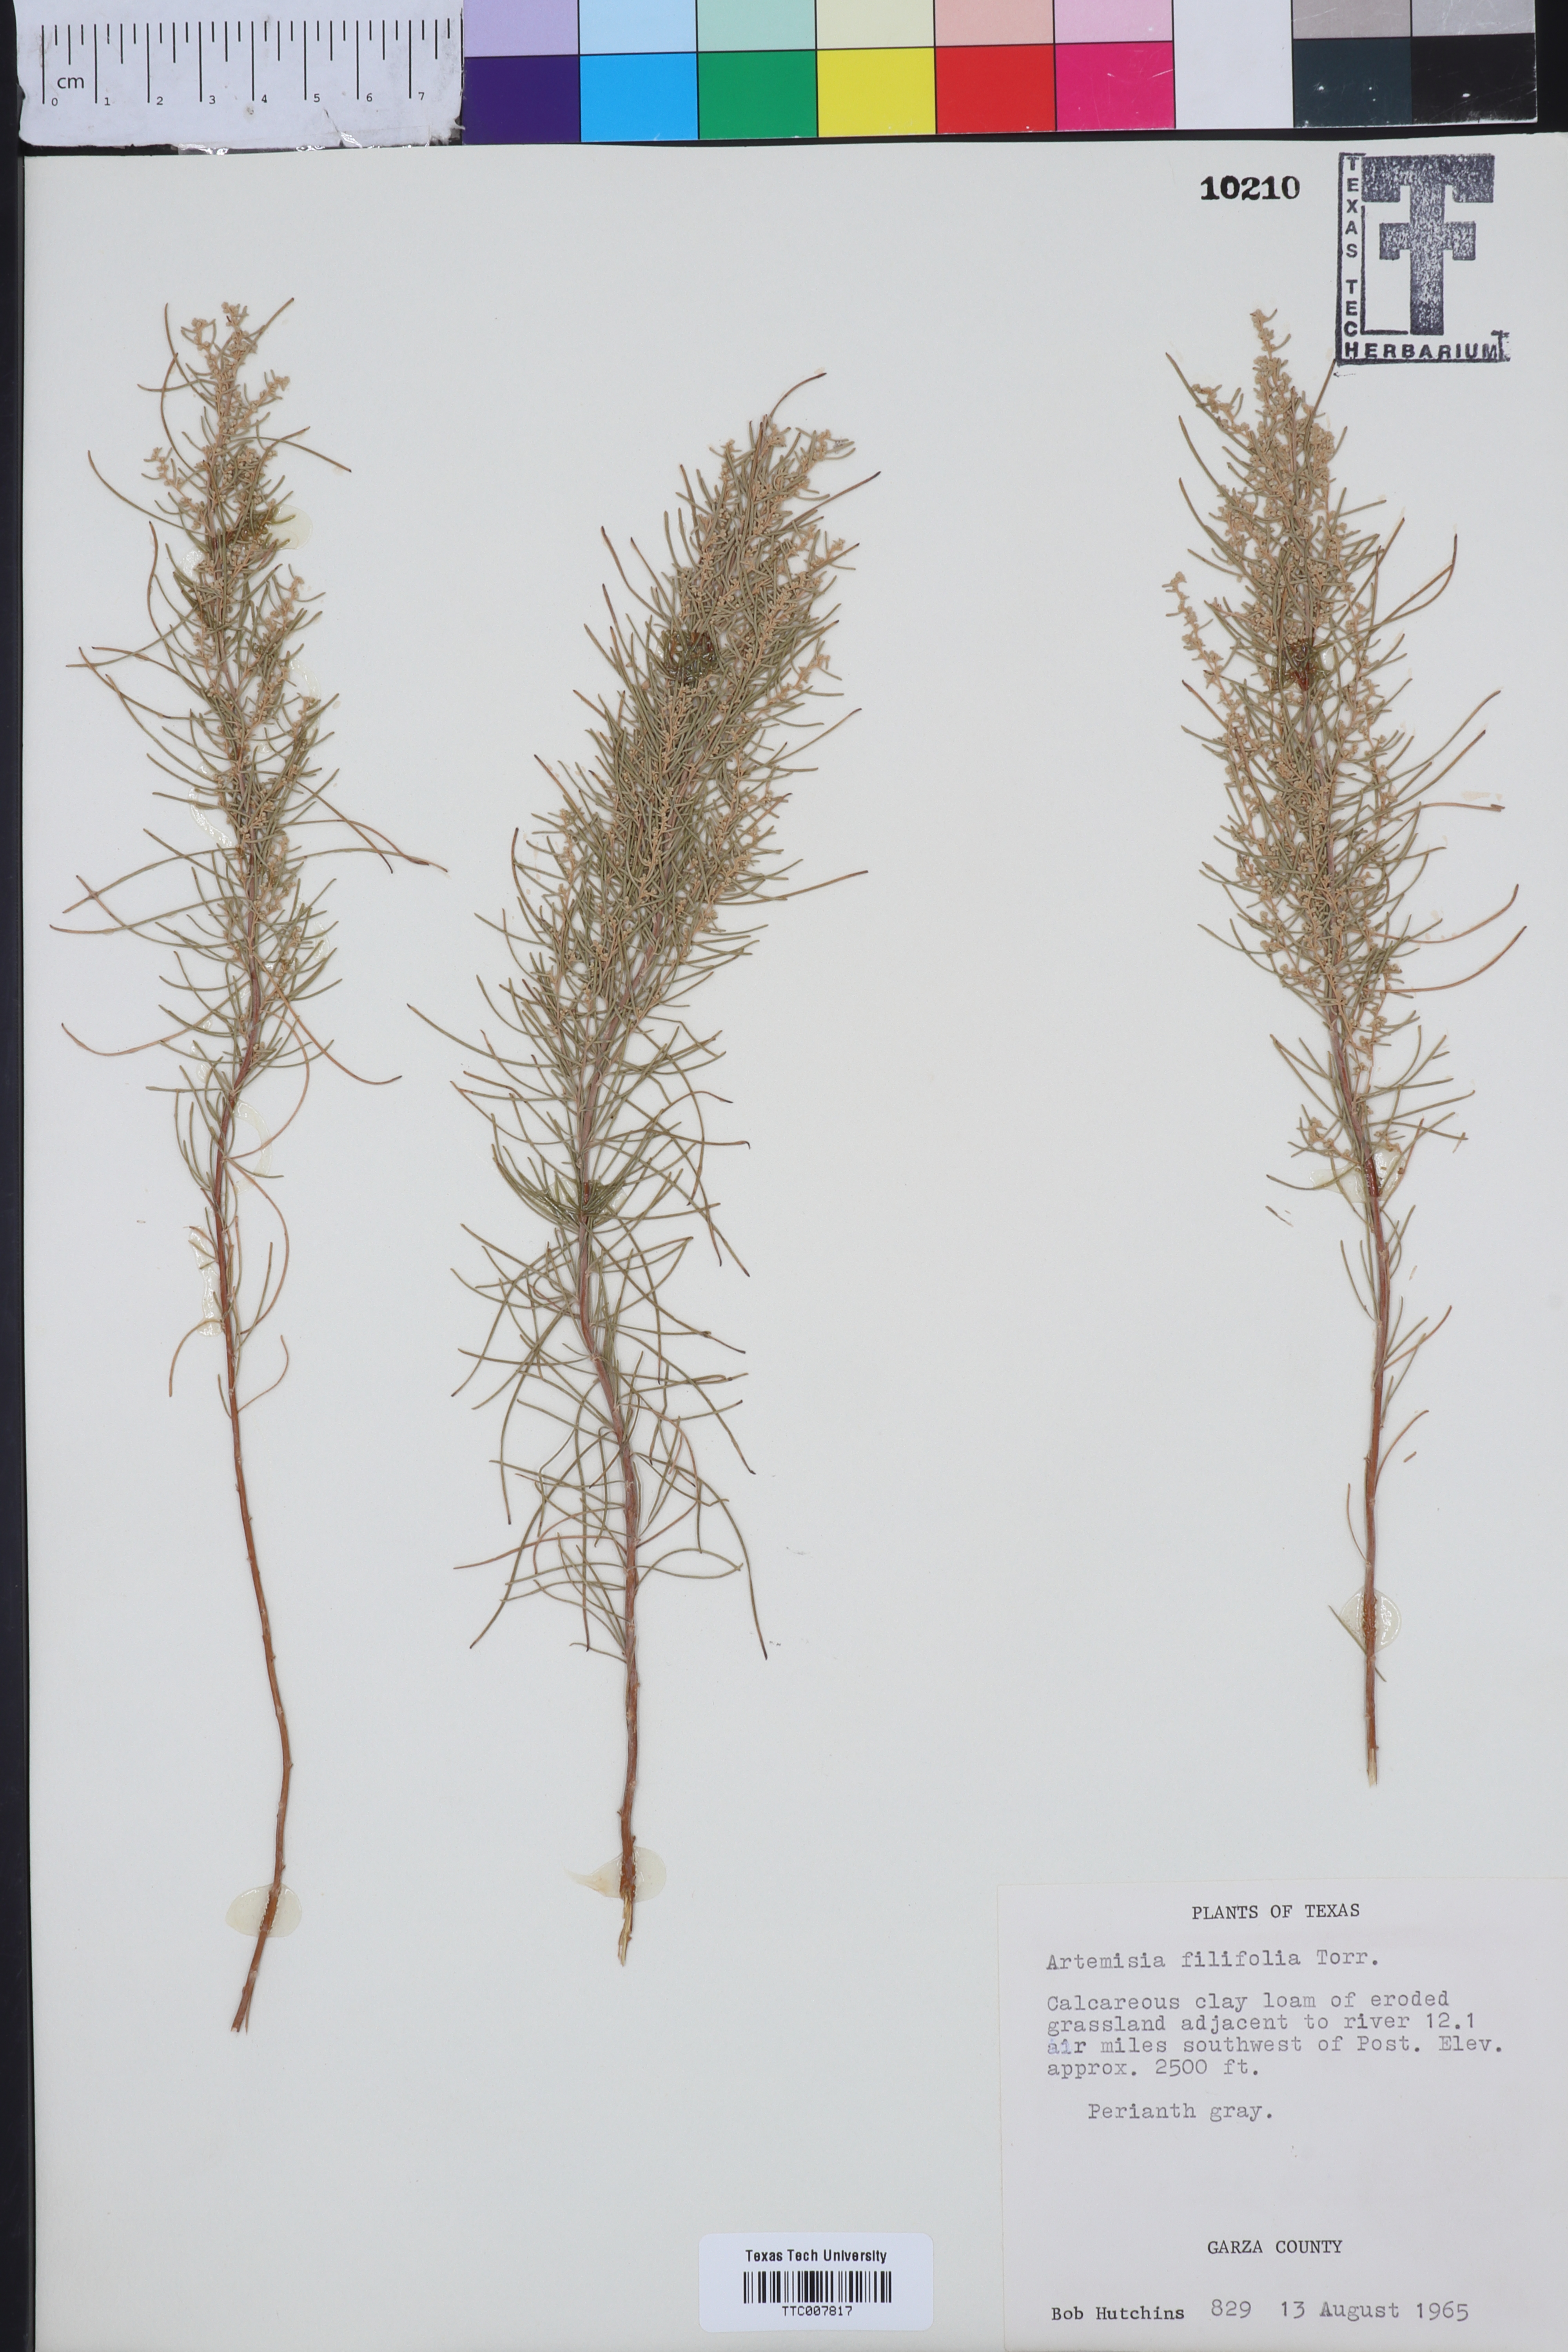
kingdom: Plantae
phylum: Tracheophyta
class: Magnoliopsida
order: Asterales
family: Asteraceae
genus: Artemisia
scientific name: Artemisia filifolia
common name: Sand-sage
